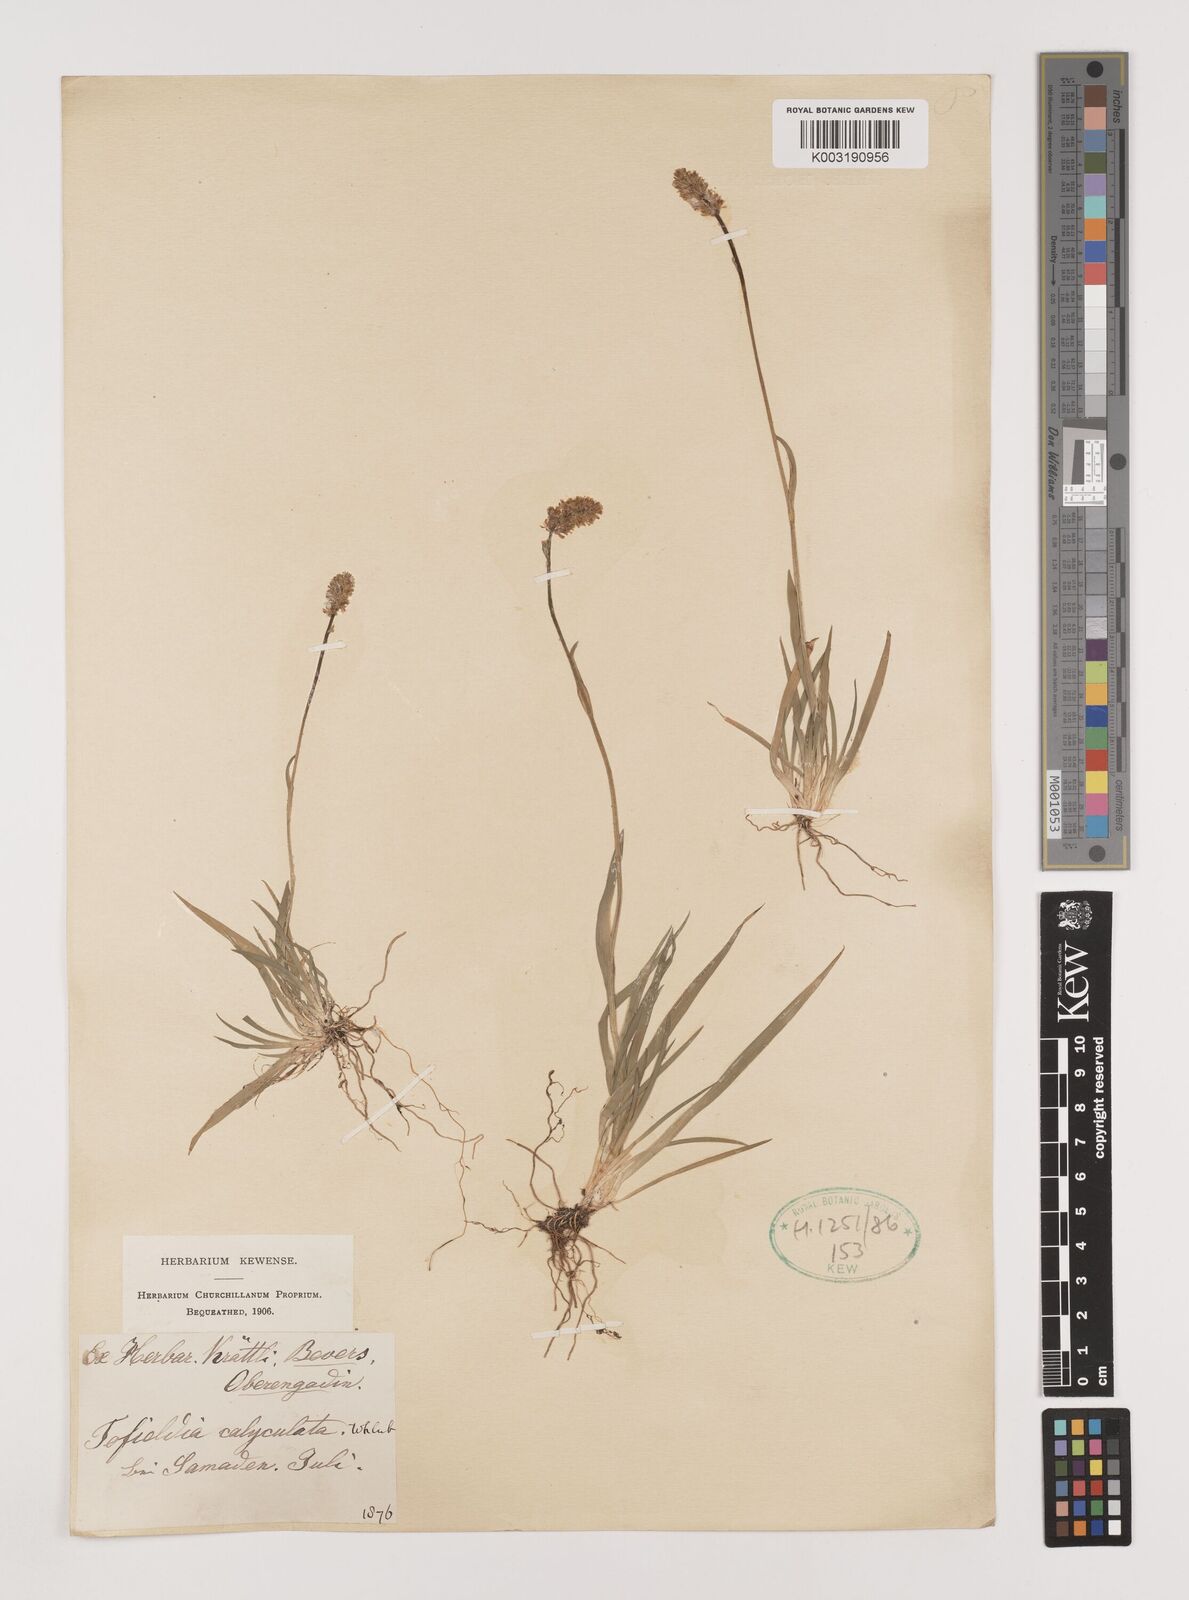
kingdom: Plantae
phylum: Tracheophyta
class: Liliopsida
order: Alismatales
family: Tofieldiaceae
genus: Tofieldia
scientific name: Tofieldia calyculata
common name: German-asphodel
